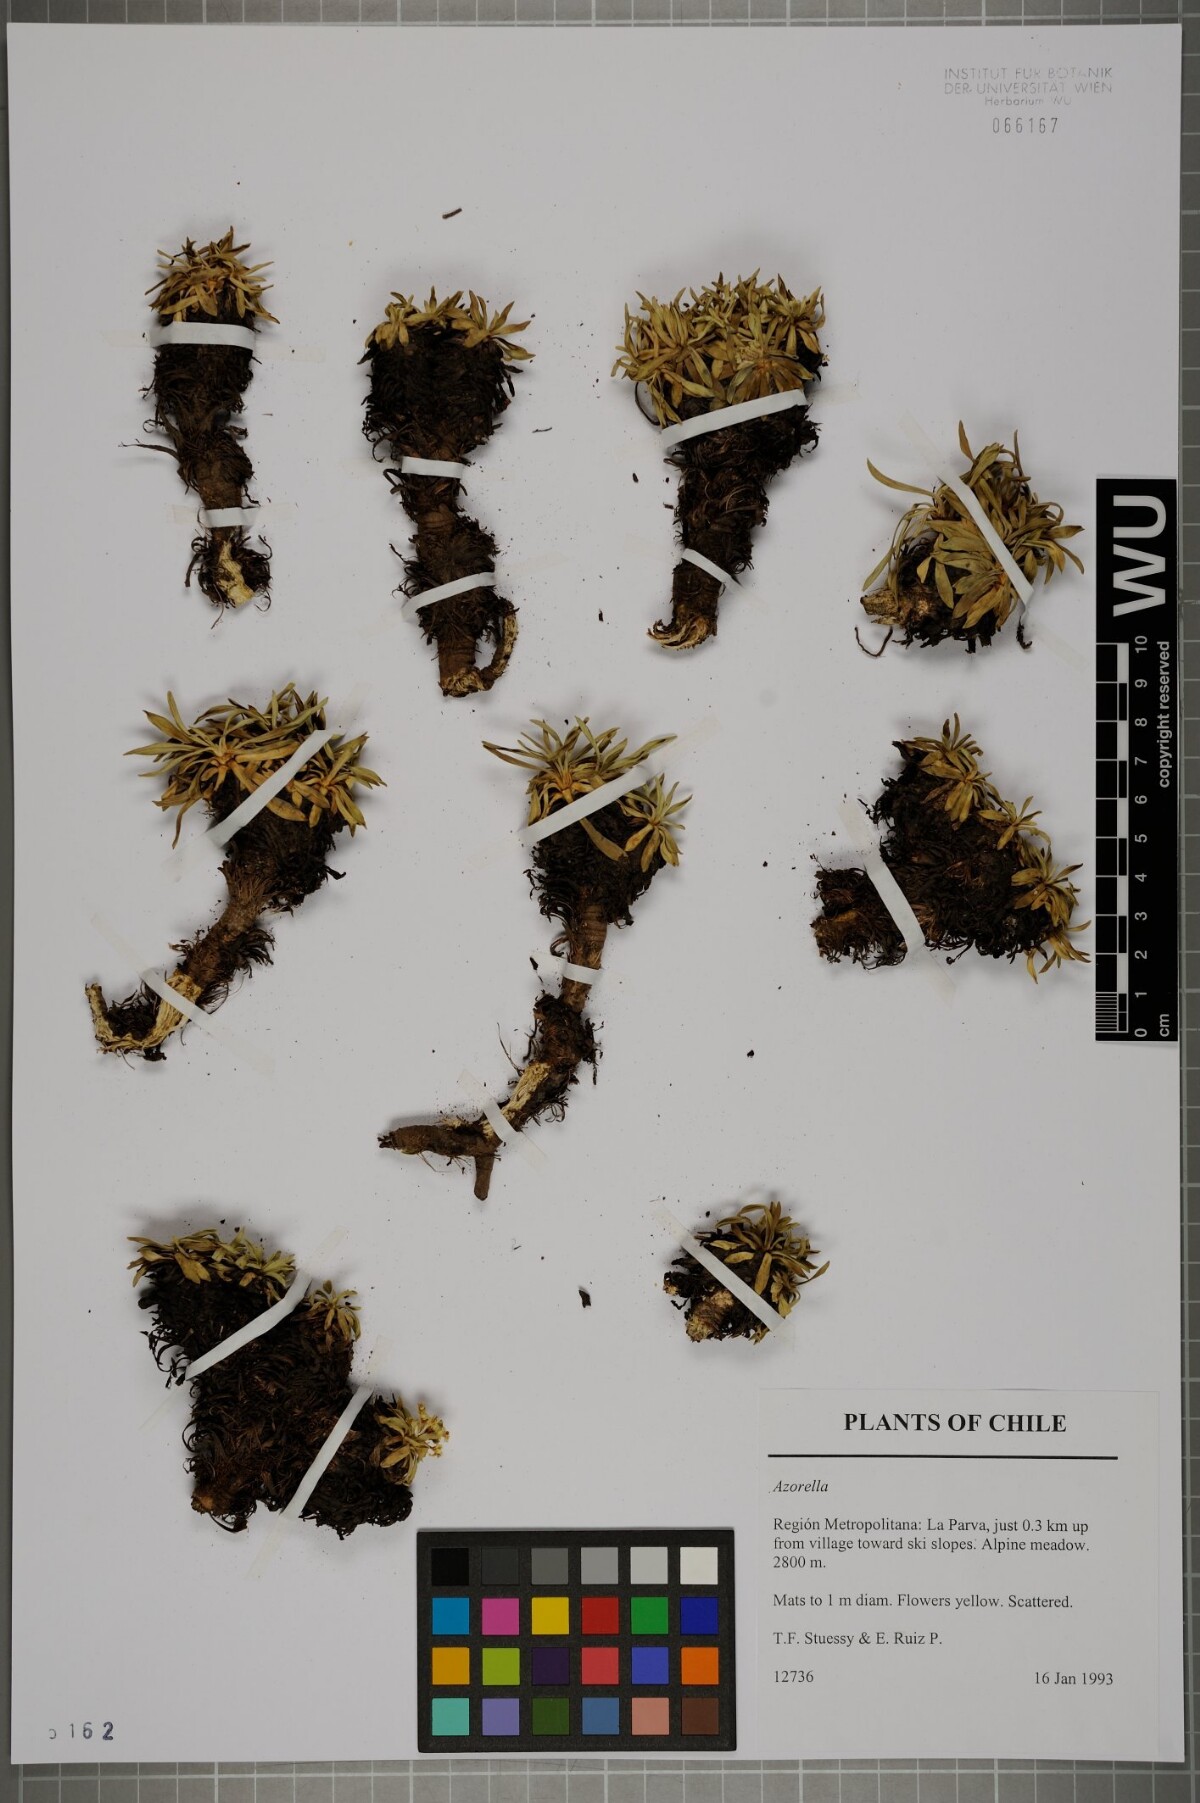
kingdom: Plantae
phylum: Tracheophyta
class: Magnoliopsida
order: Apiales
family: Apiaceae
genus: Azorella
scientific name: Azorella
